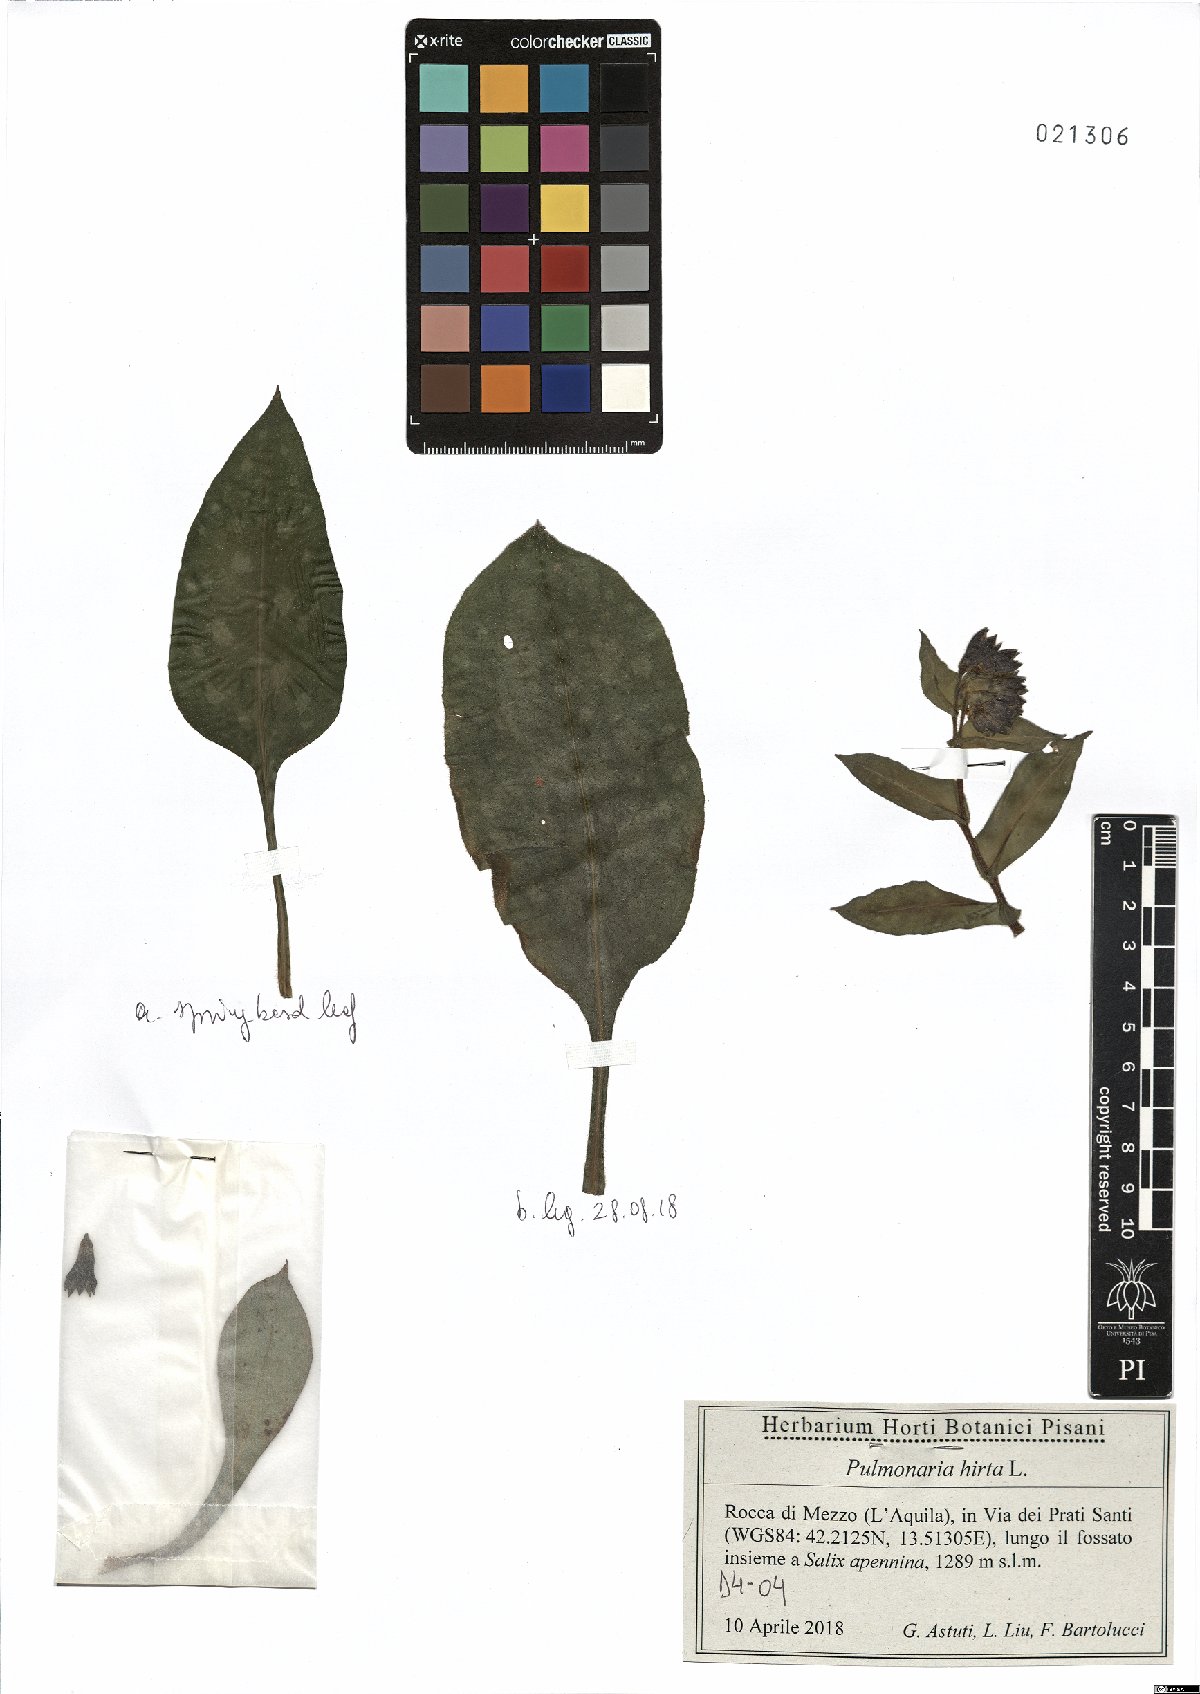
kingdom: Plantae
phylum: Tracheophyta
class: Magnoliopsida
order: Boraginales
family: Boraginaceae
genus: Pulmonaria
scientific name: Pulmonaria hirta
